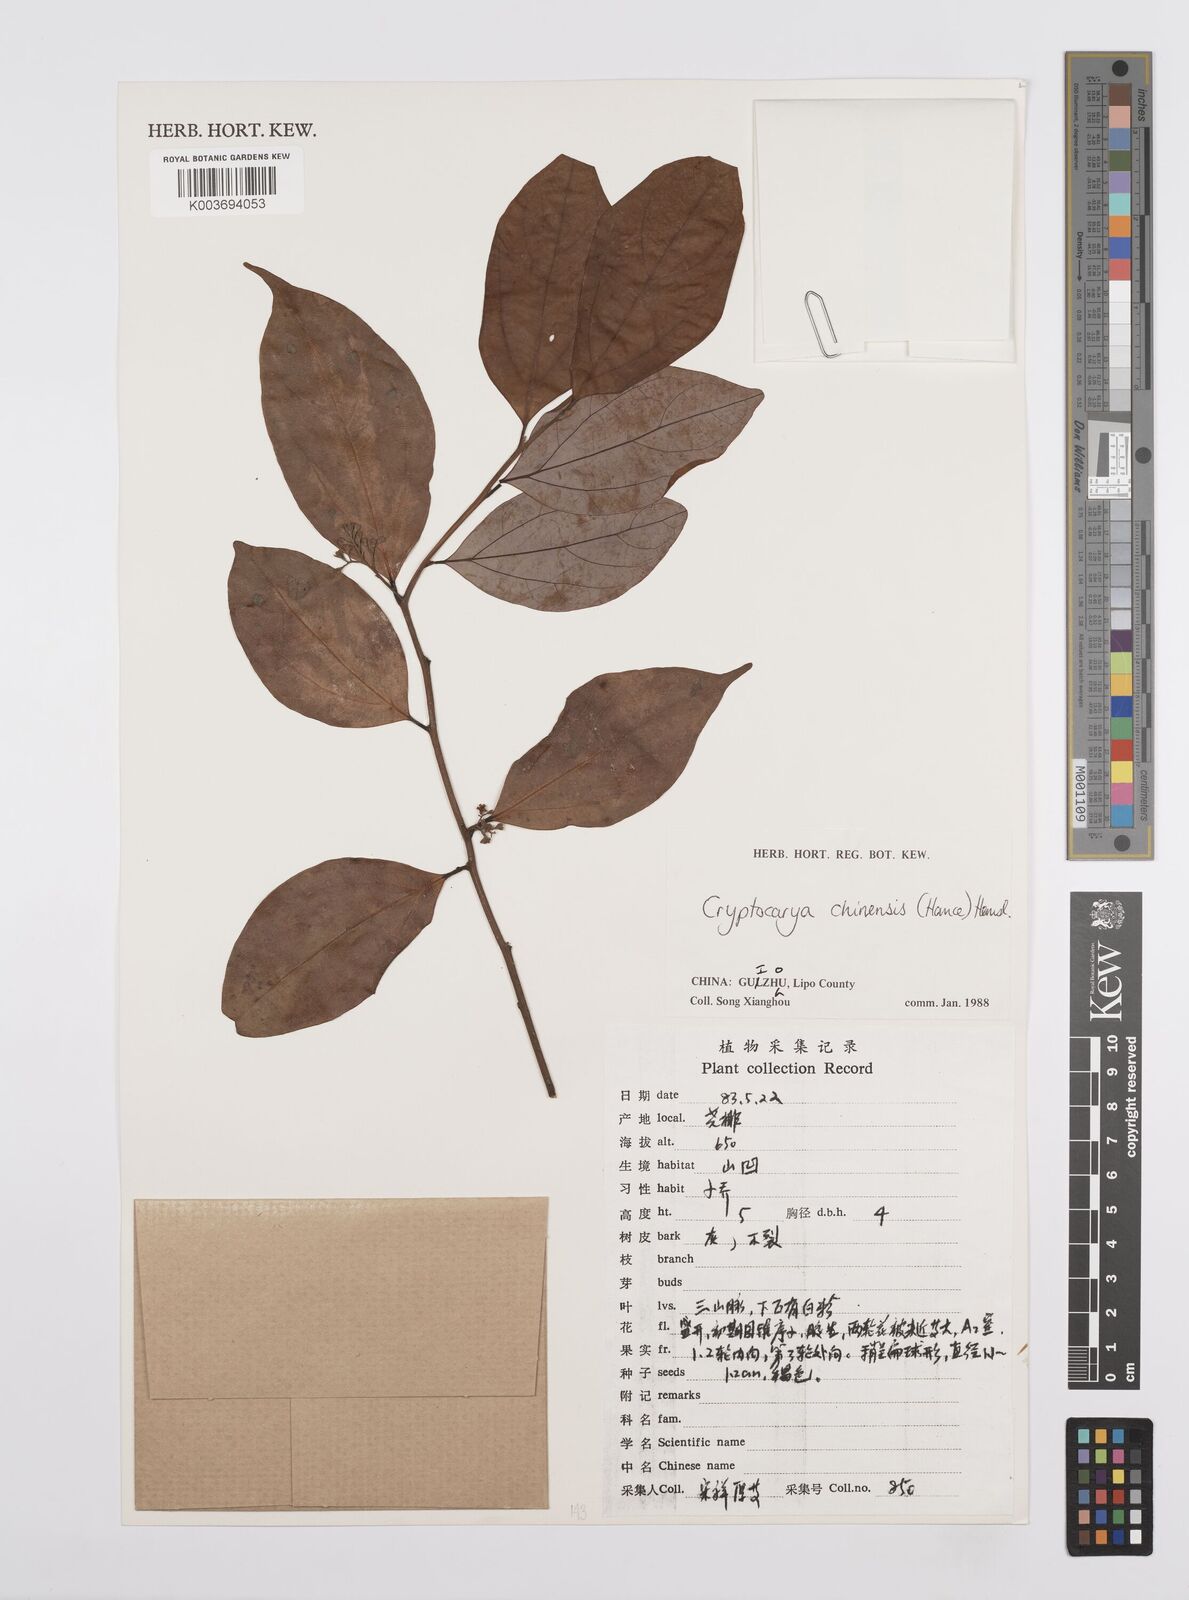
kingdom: Plantae
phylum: Tracheophyta
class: Magnoliopsida
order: Laurales
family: Lauraceae
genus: Cryptocarya
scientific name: Cryptocarya chinensis
